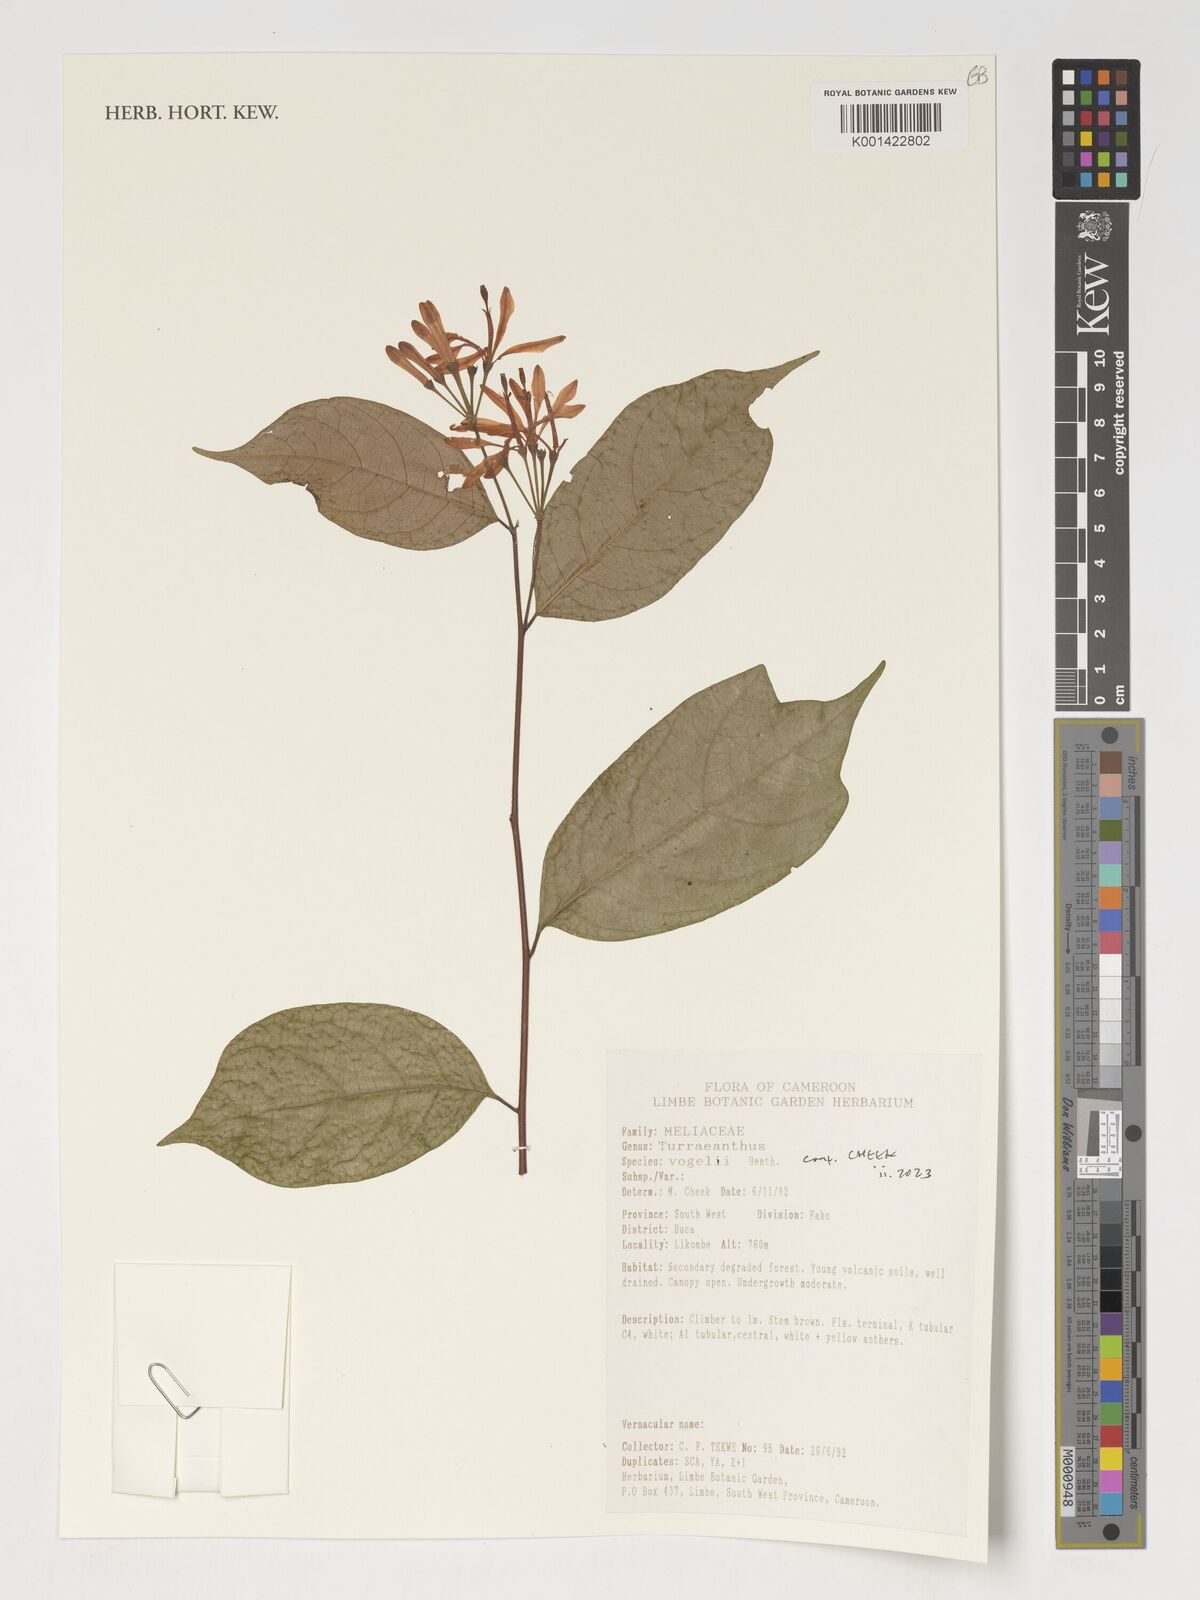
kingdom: Plantae
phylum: Tracheophyta
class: Magnoliopsida
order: Sapindales
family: Meliaceae
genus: Turraeanthus
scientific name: Turraeanthus
